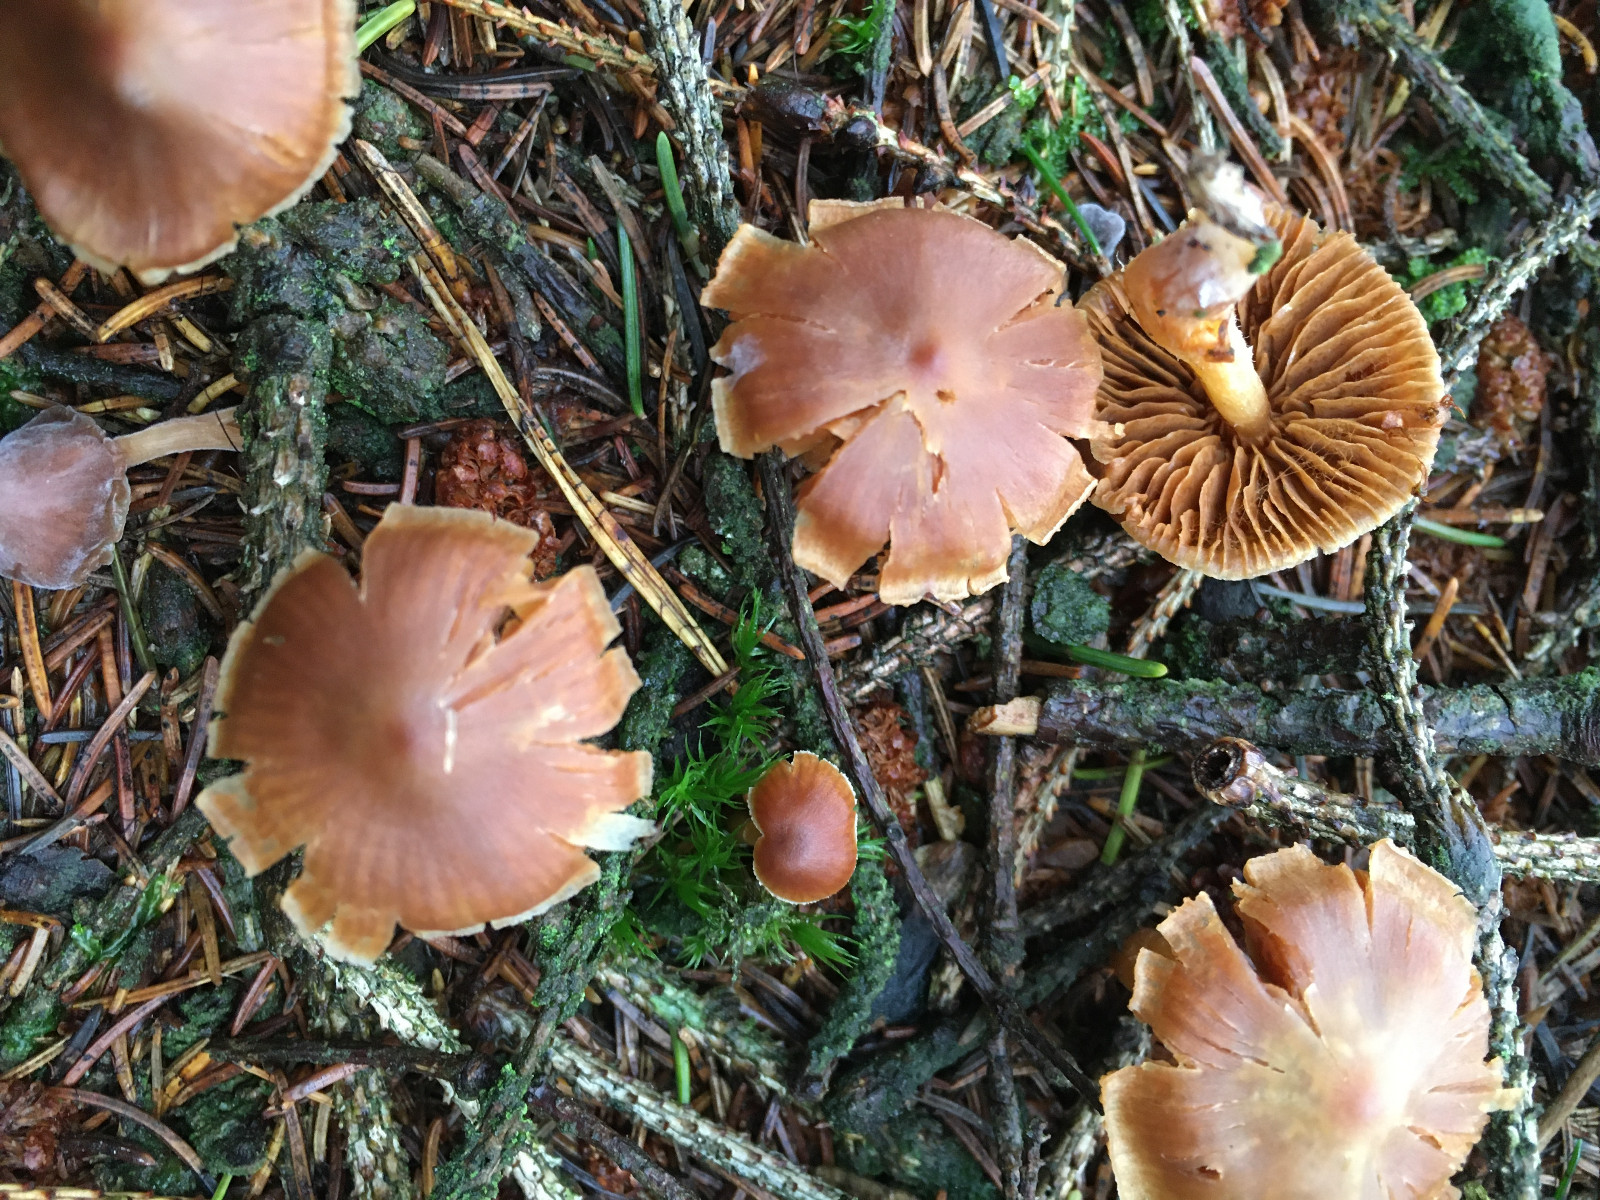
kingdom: Fungi
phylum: Basidiomycota
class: Agaricomycetes
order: Agaricales
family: Cortinariaceae
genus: Cortinarius
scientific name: Cortinarius
